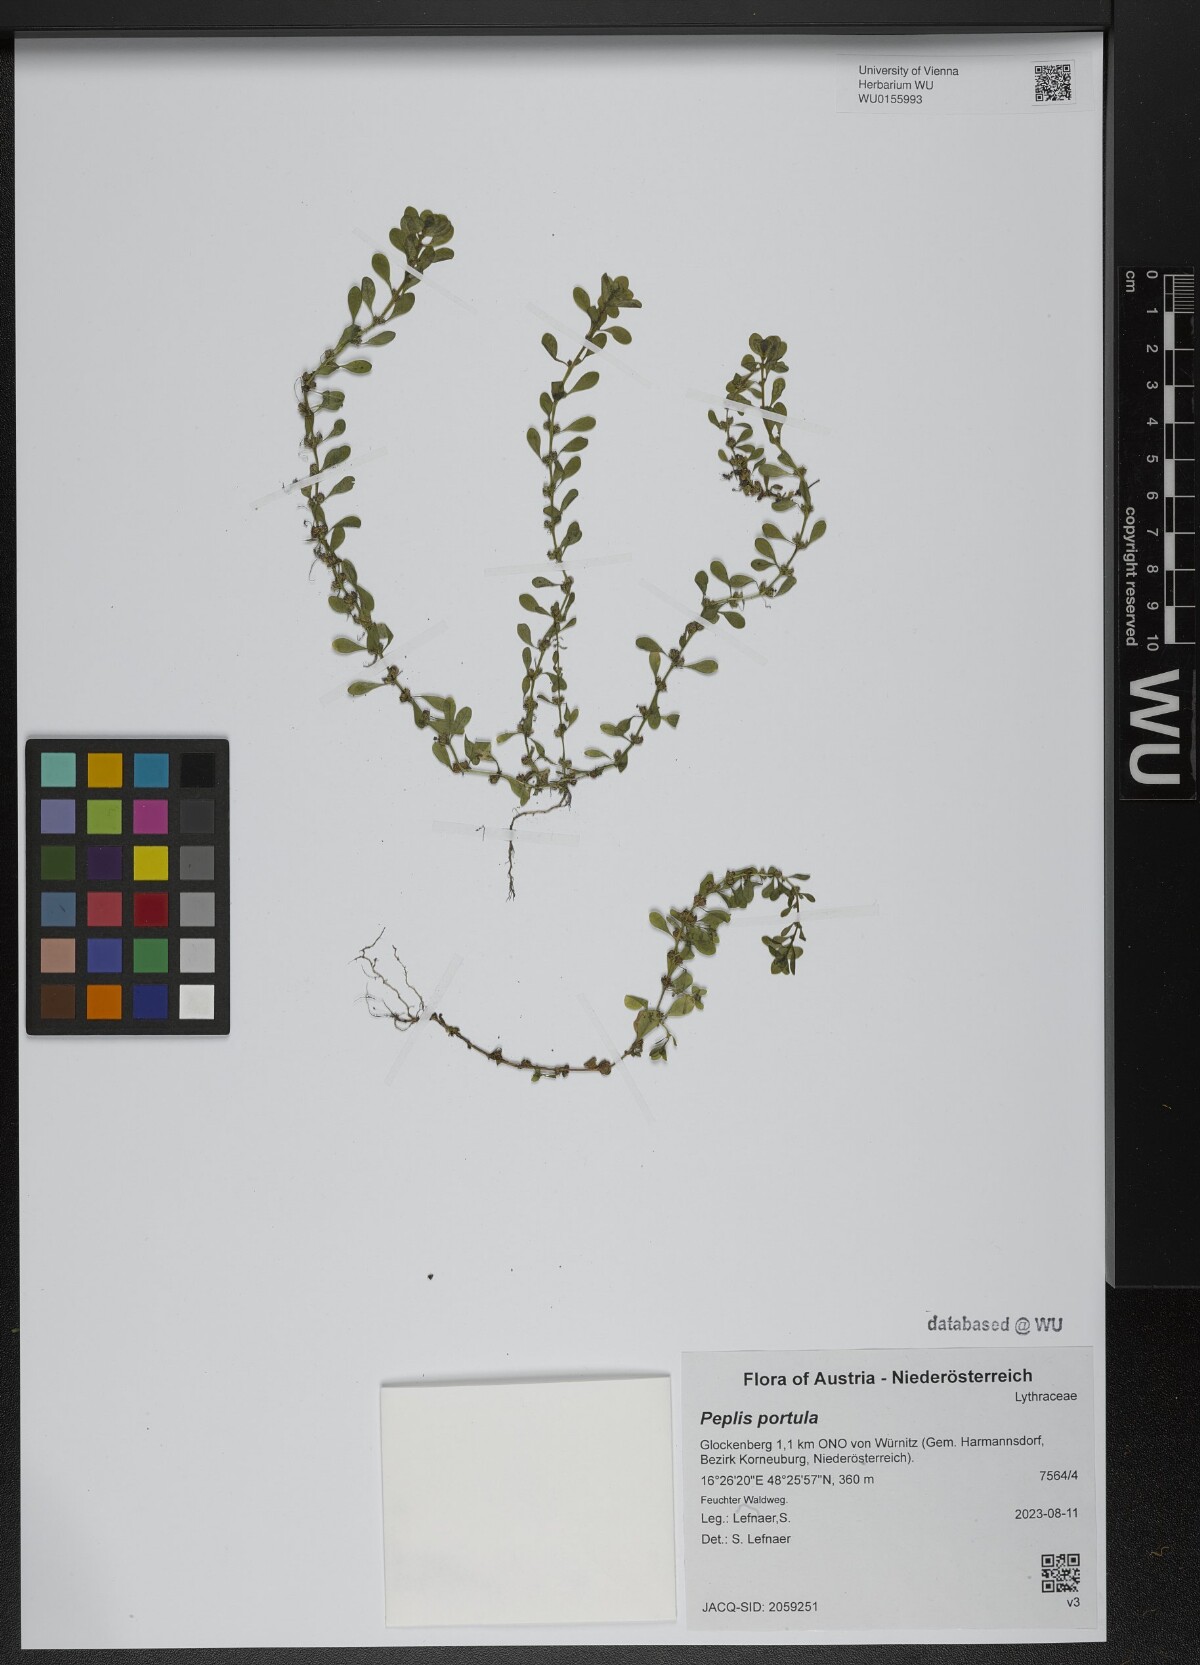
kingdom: Plantae
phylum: Tracheophyta
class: Magnoliopsida
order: Myrtales
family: Lythraceae
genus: Lythrum
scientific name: Lythrum portula
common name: Water purslane
